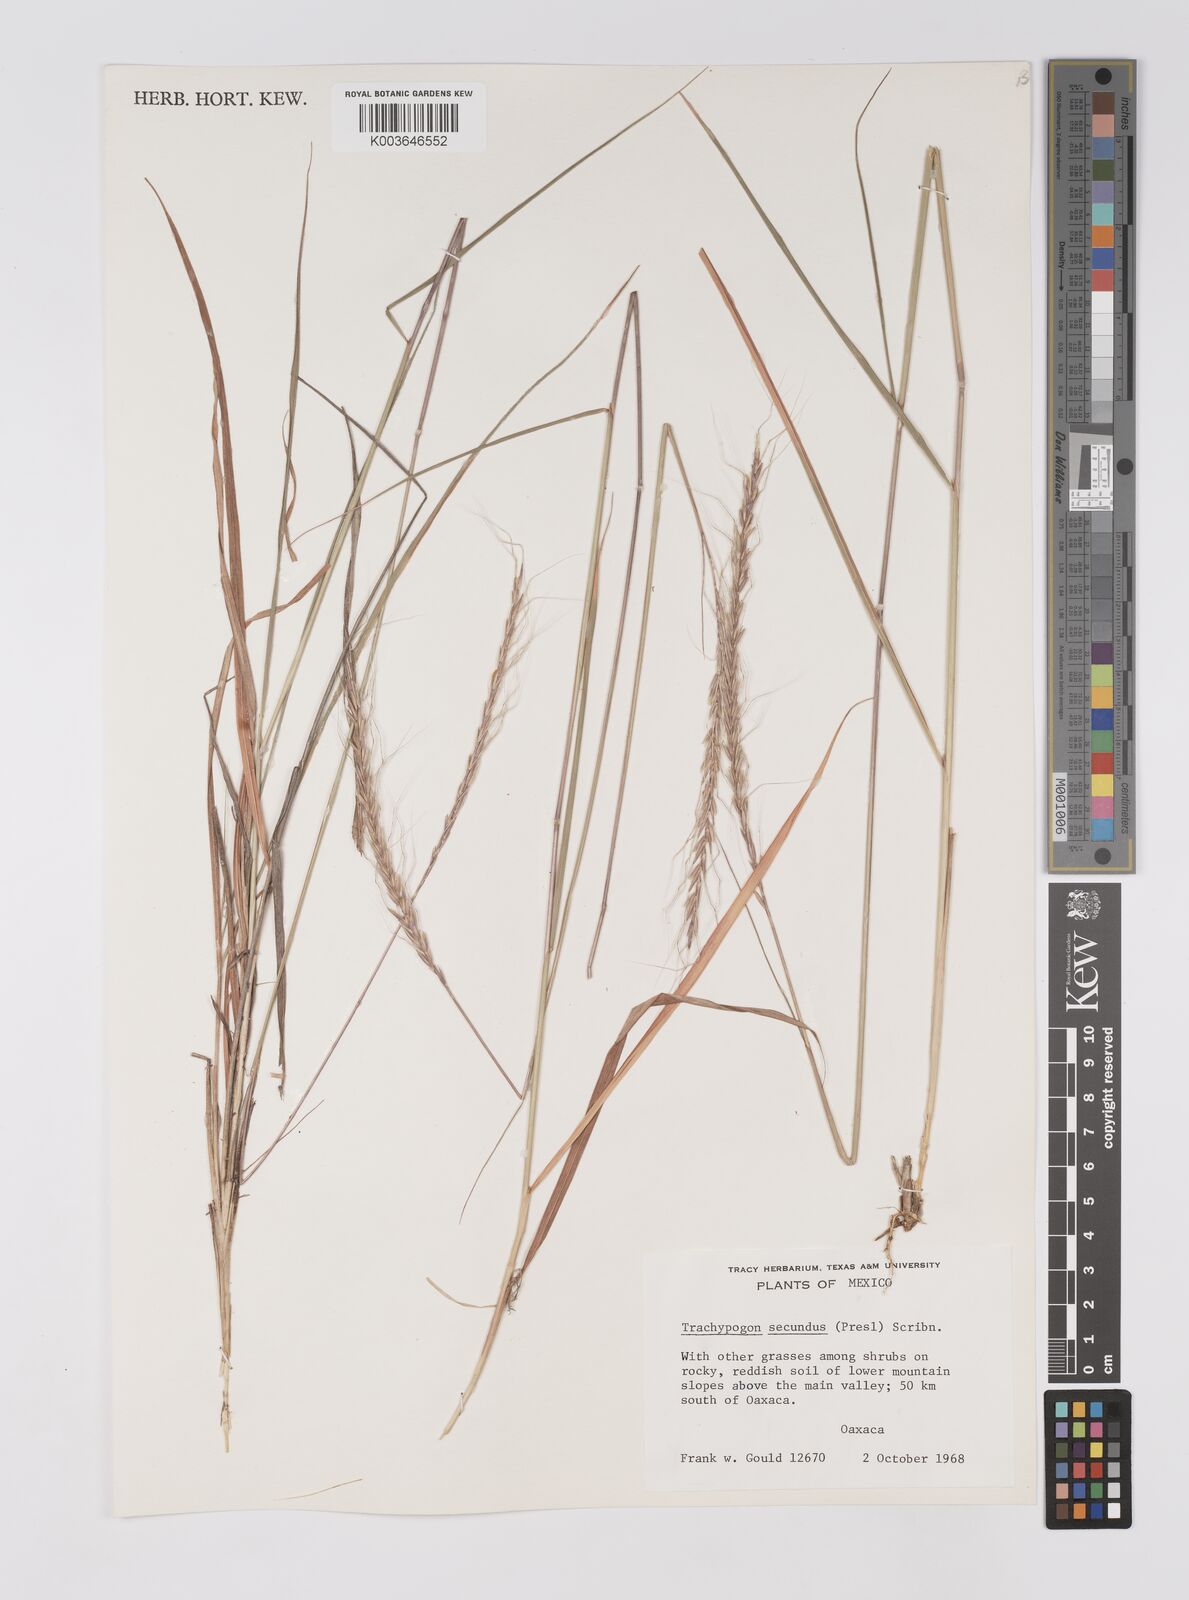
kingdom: Plantae
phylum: Tracheophyta
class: Liliopsida
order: Poales
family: Poaceae
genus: Trachypogon
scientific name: Trachypogon spicatus
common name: Crinkle-awn
